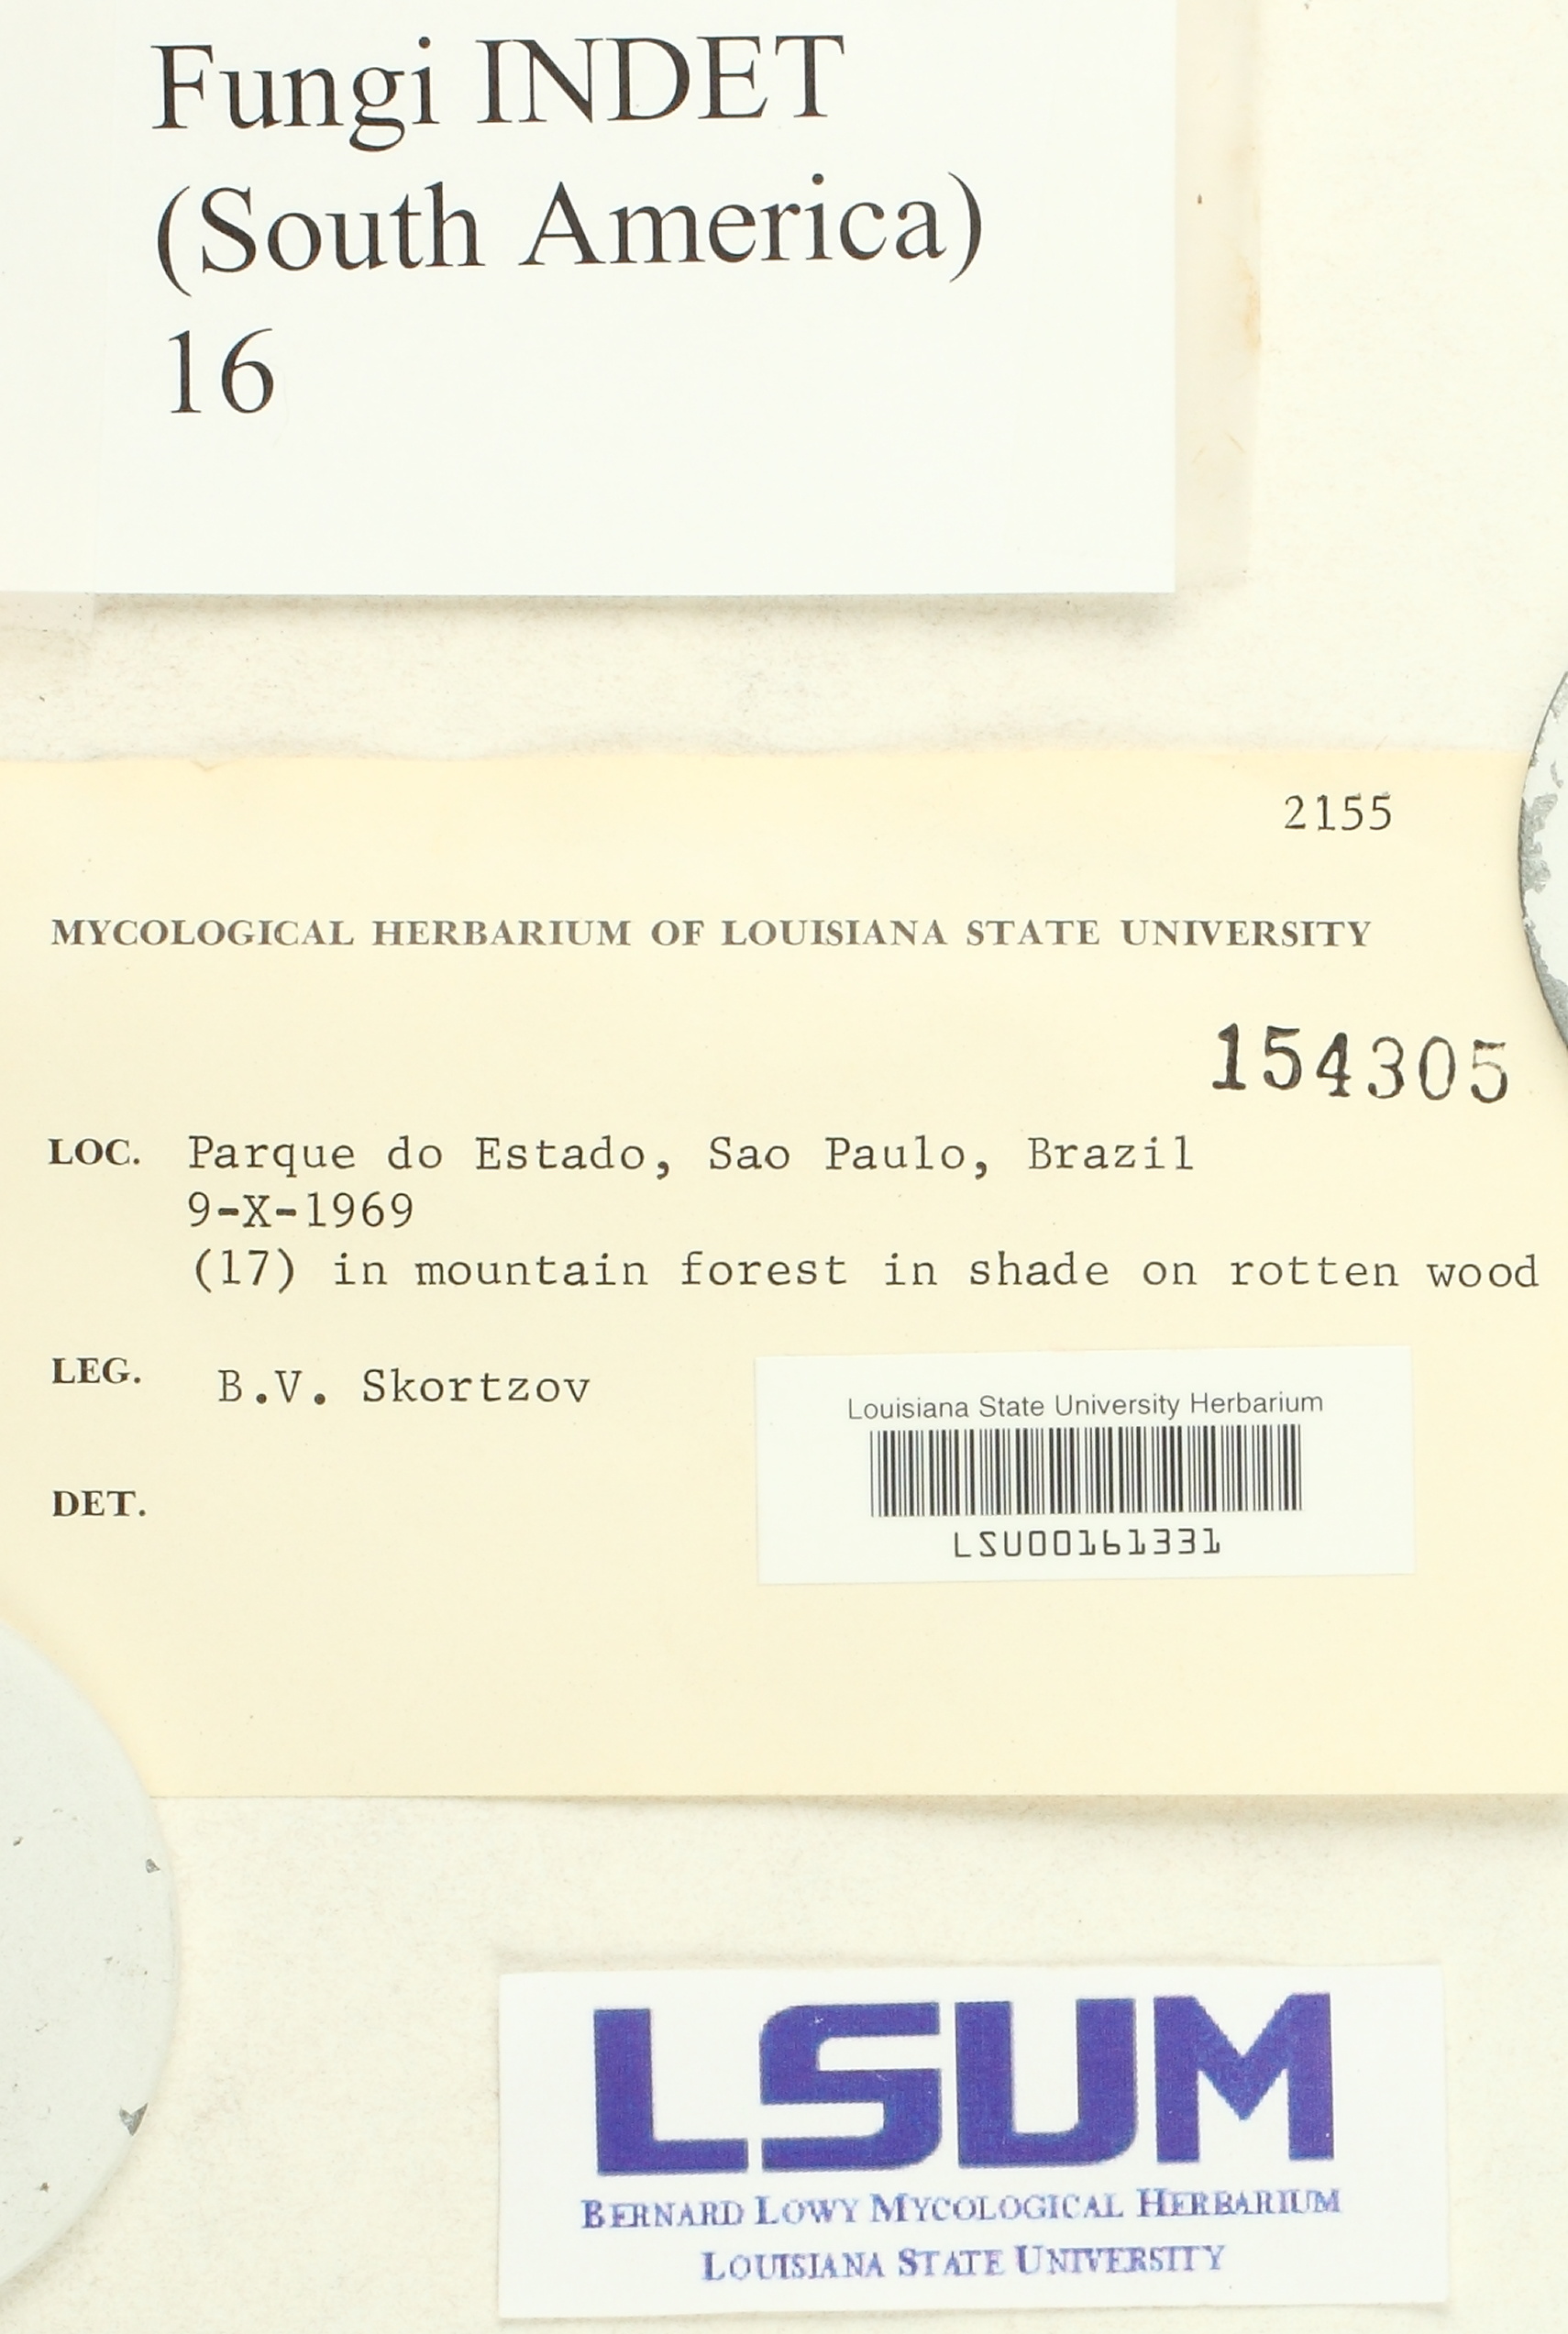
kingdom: Fungi
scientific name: Fungi
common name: Fungi
